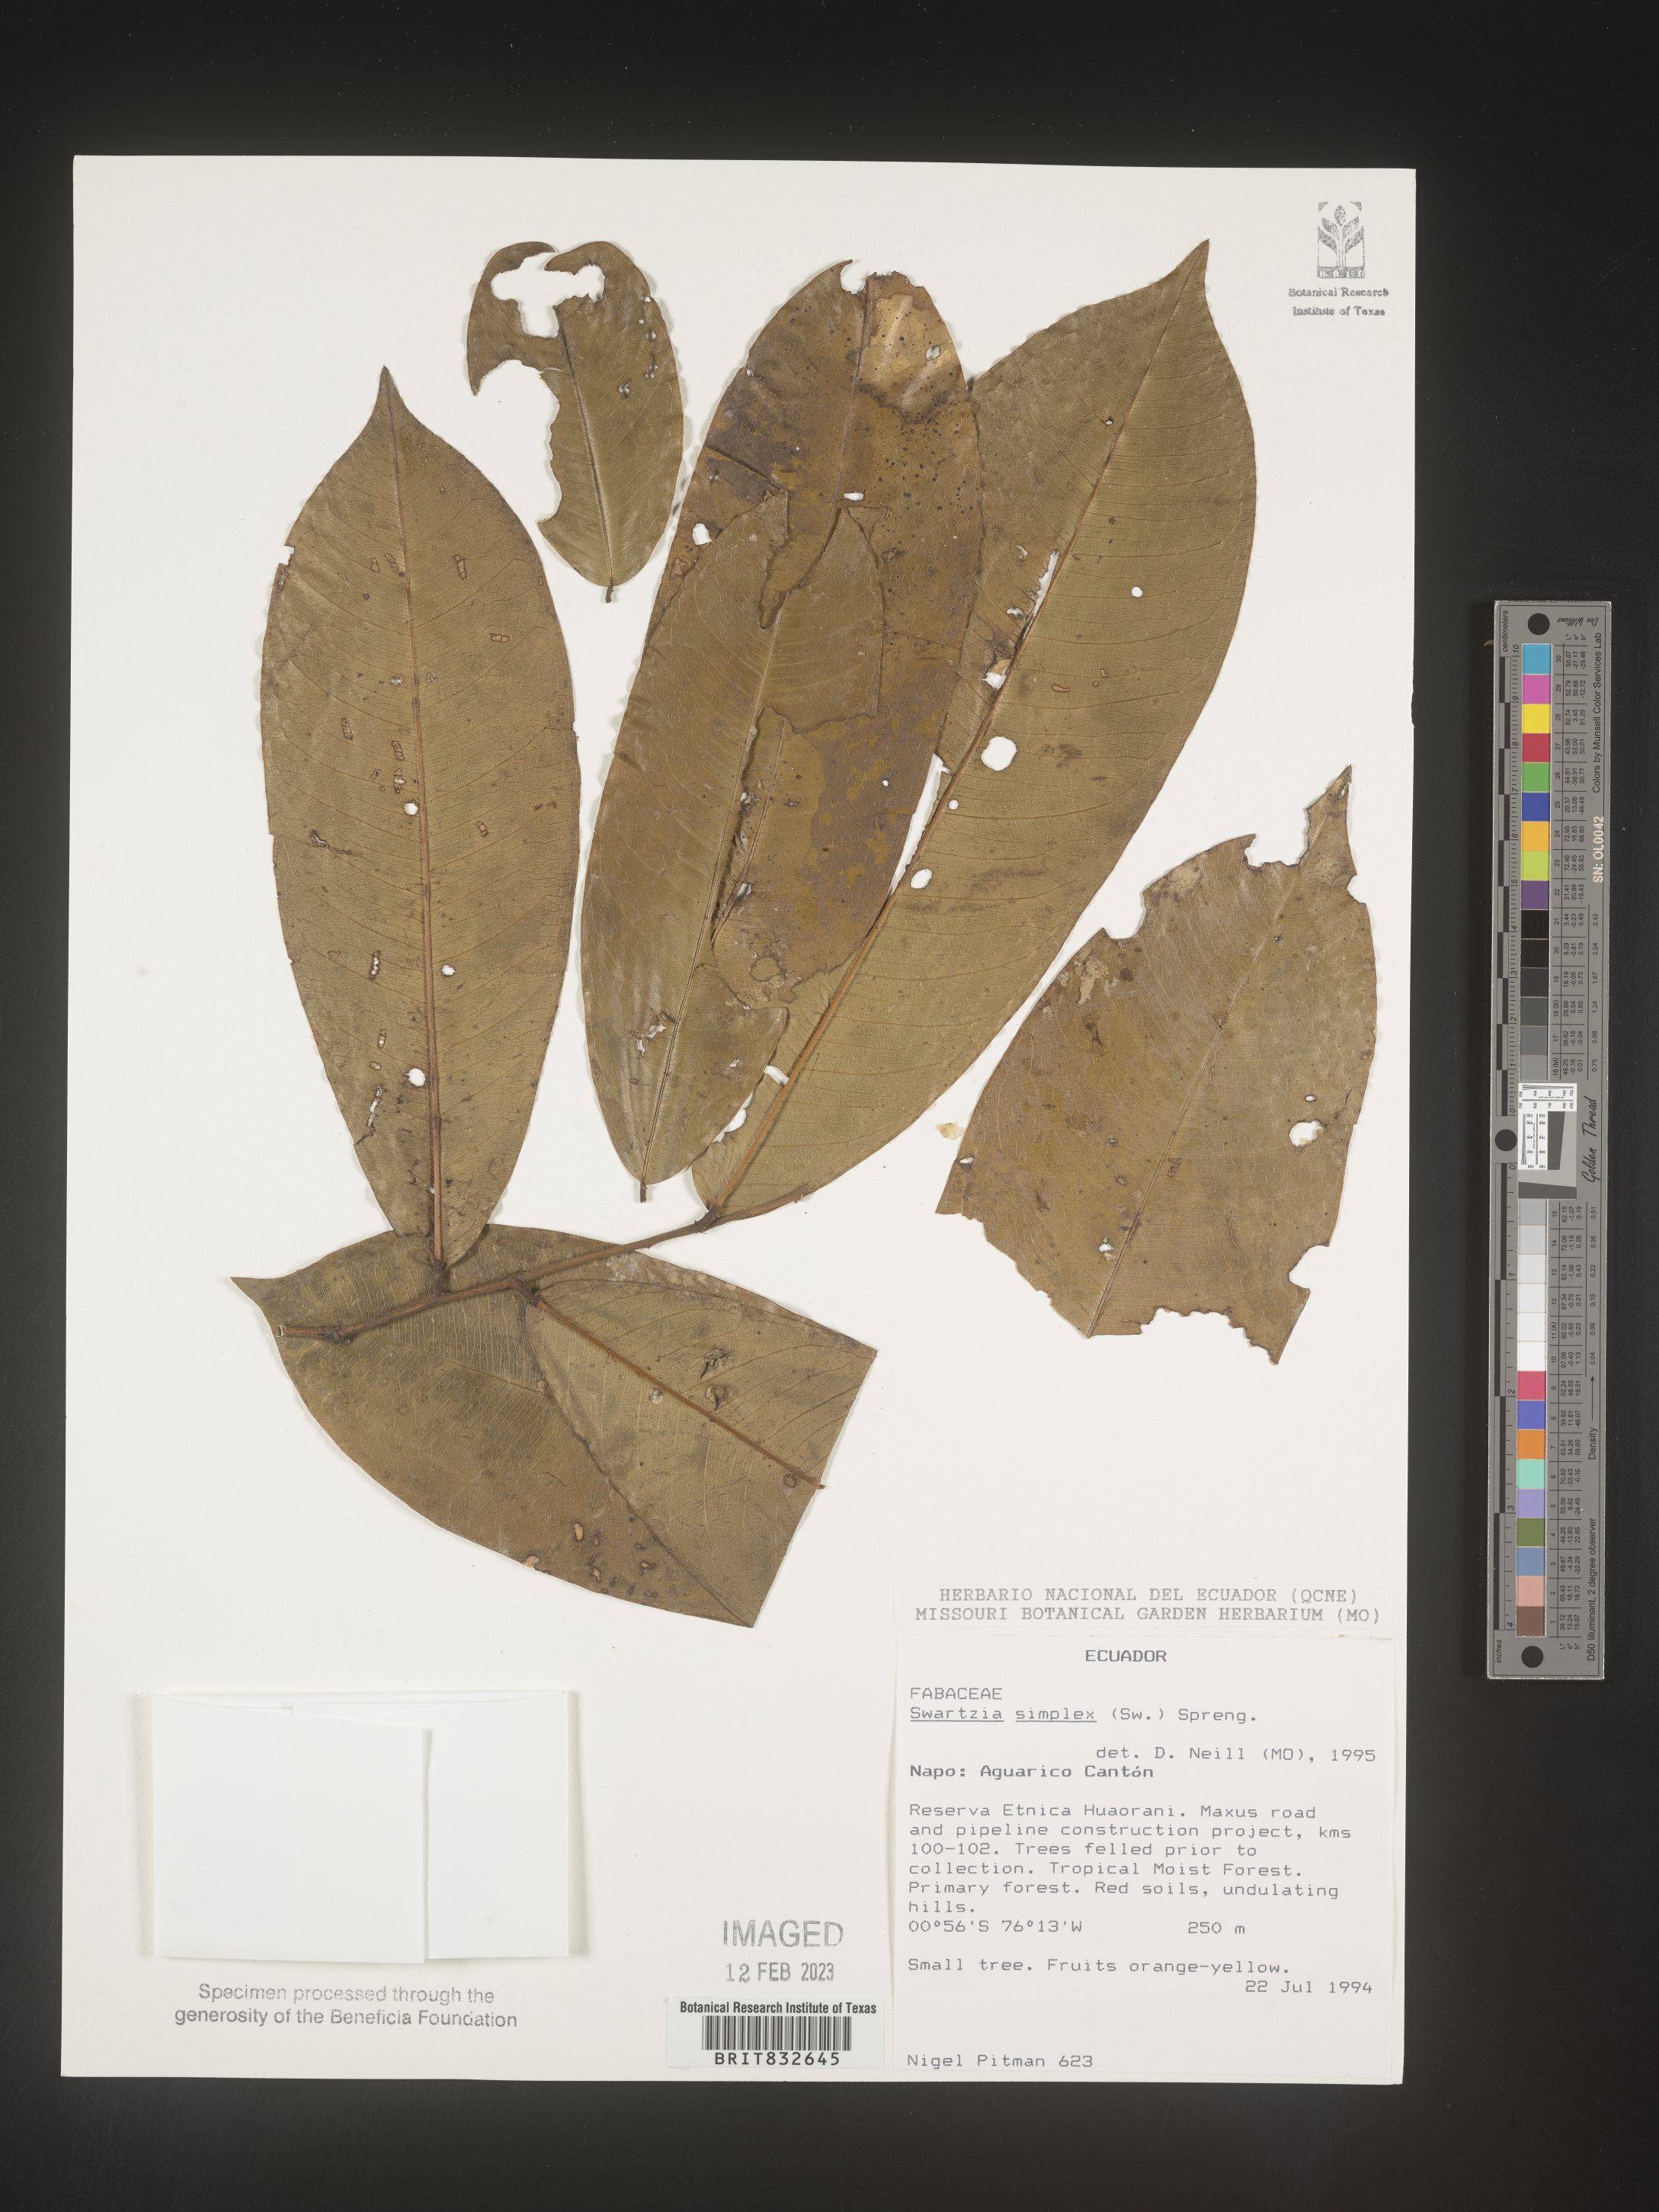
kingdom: Plantae
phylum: Tracheophyta
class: Magnoliopsida
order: Fabales
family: Fabaceae
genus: Swartzia
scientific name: Swartzia
